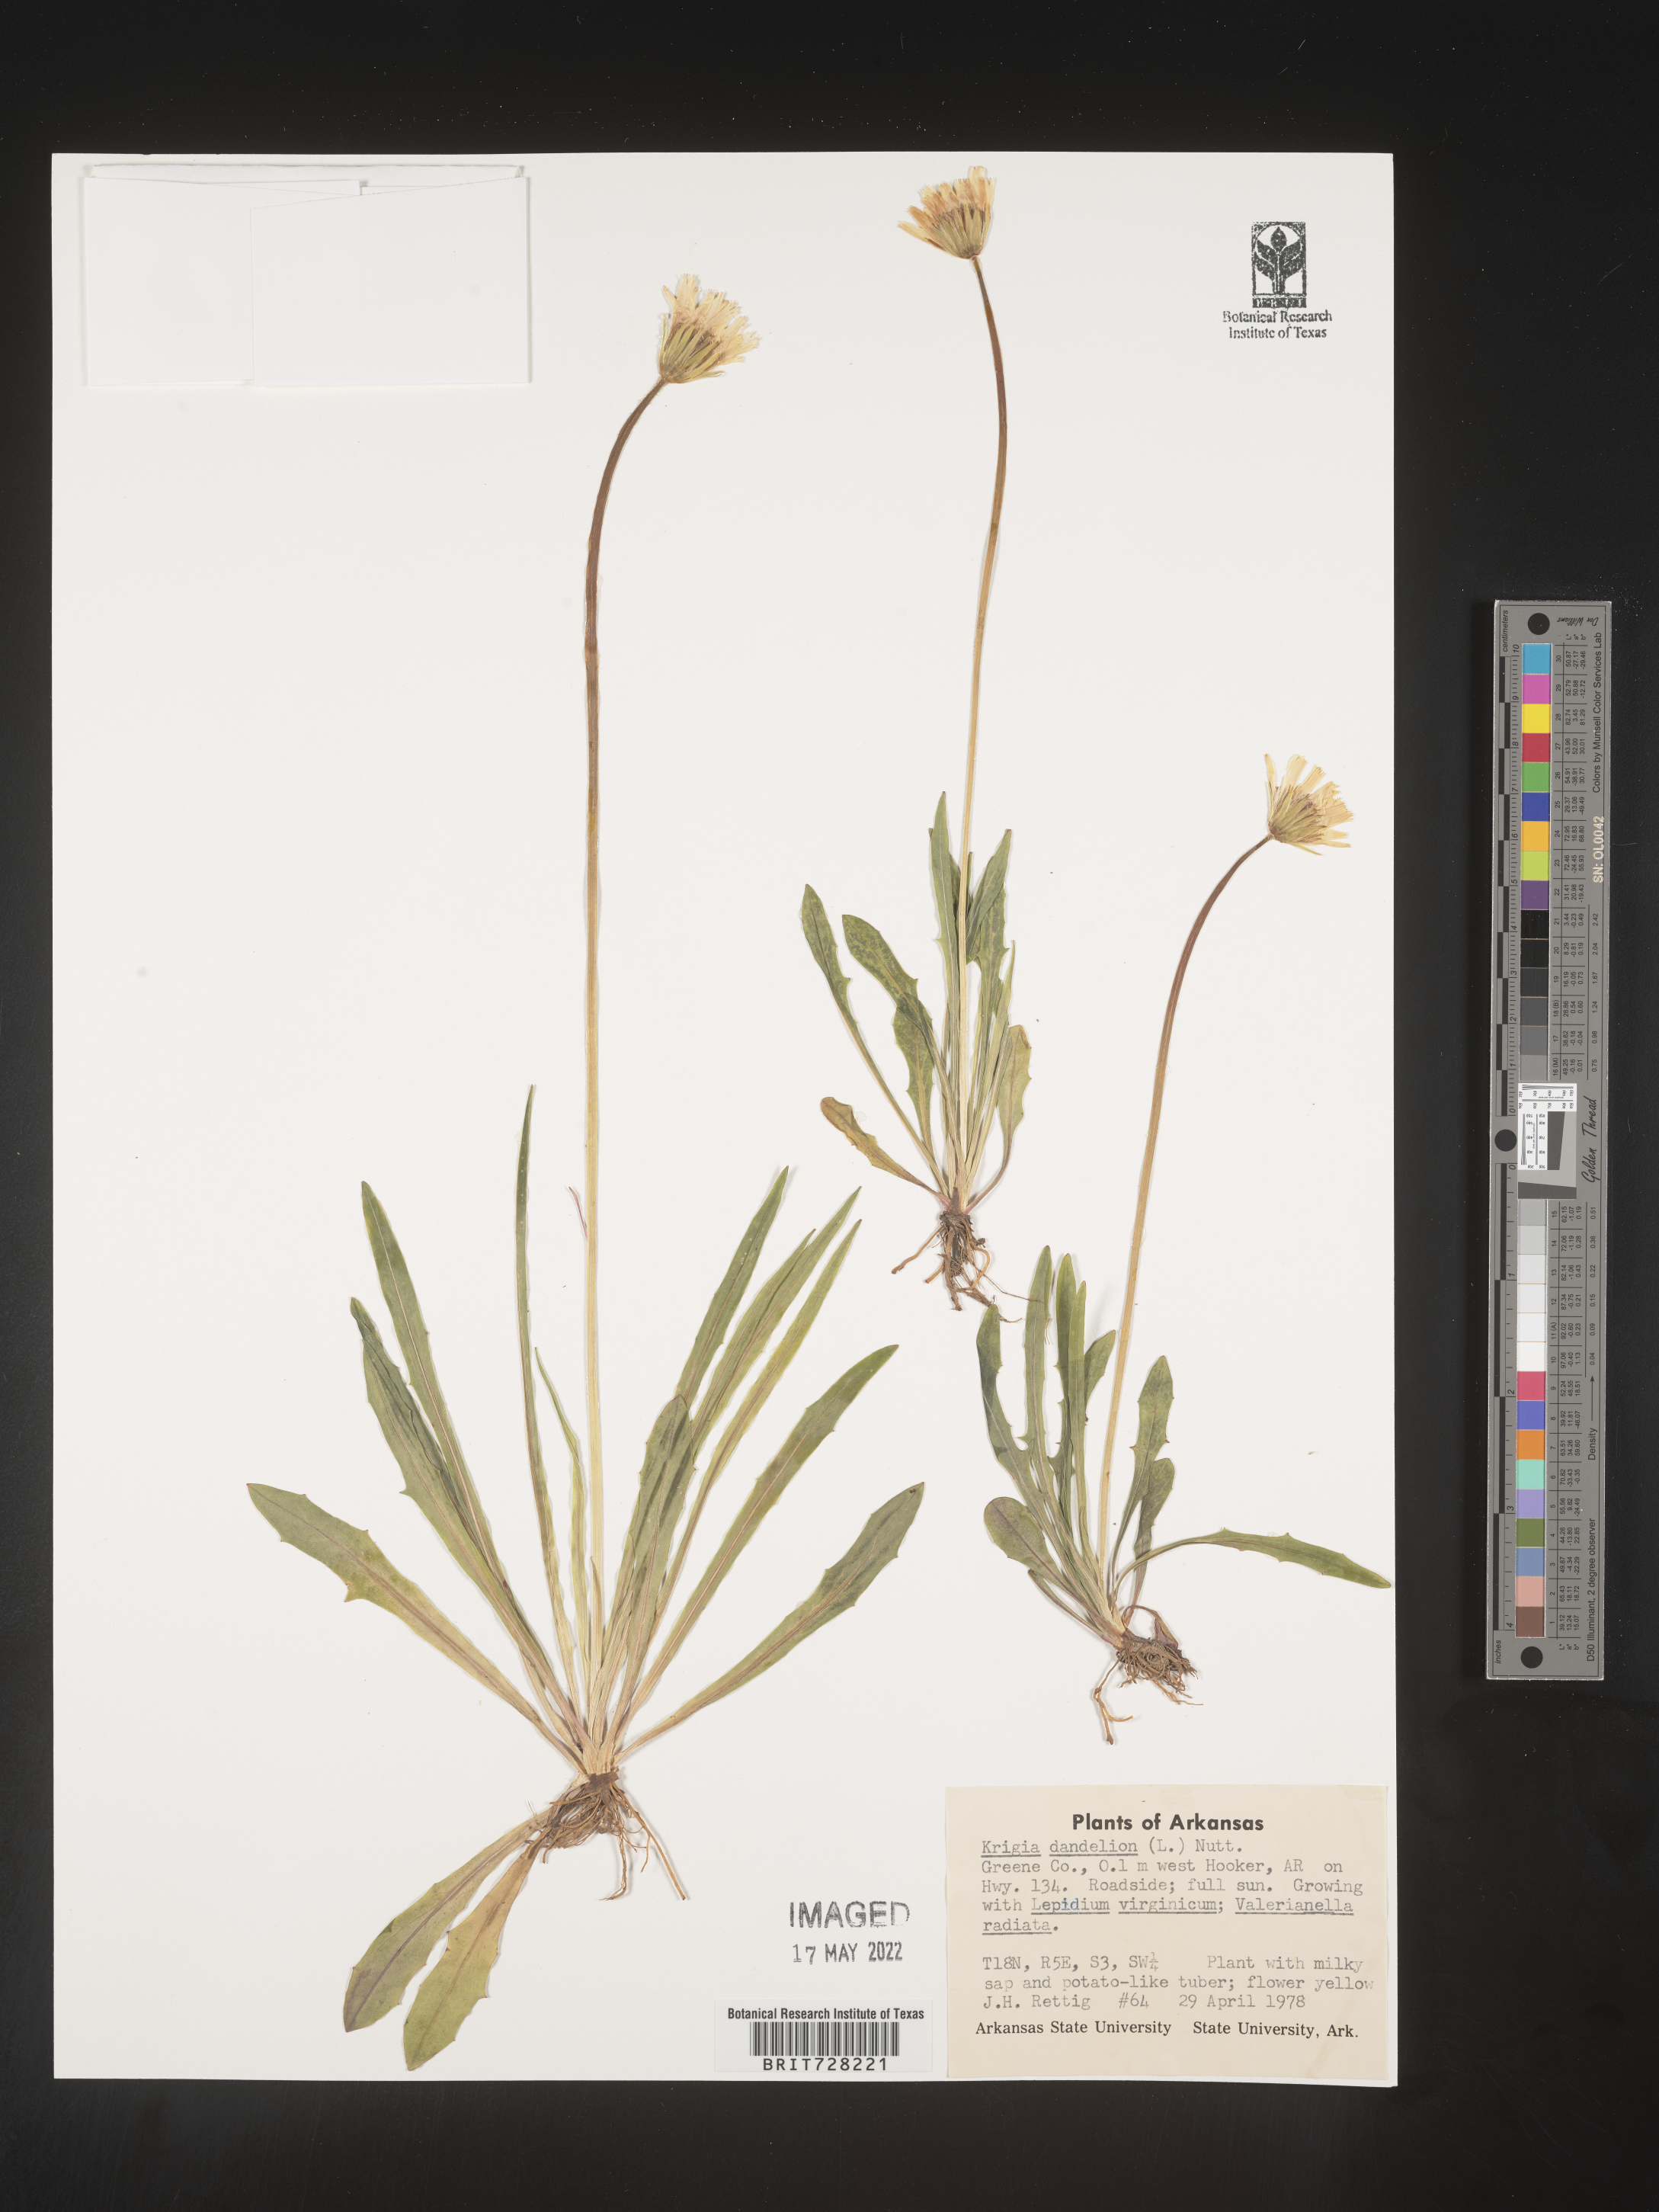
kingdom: Plantae
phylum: Tracheophyta
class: Magnoliopsida
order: Asterales
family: Asteraceae
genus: Krigia
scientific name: Krigia dandelion
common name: Colonial dwarf-dandelion
